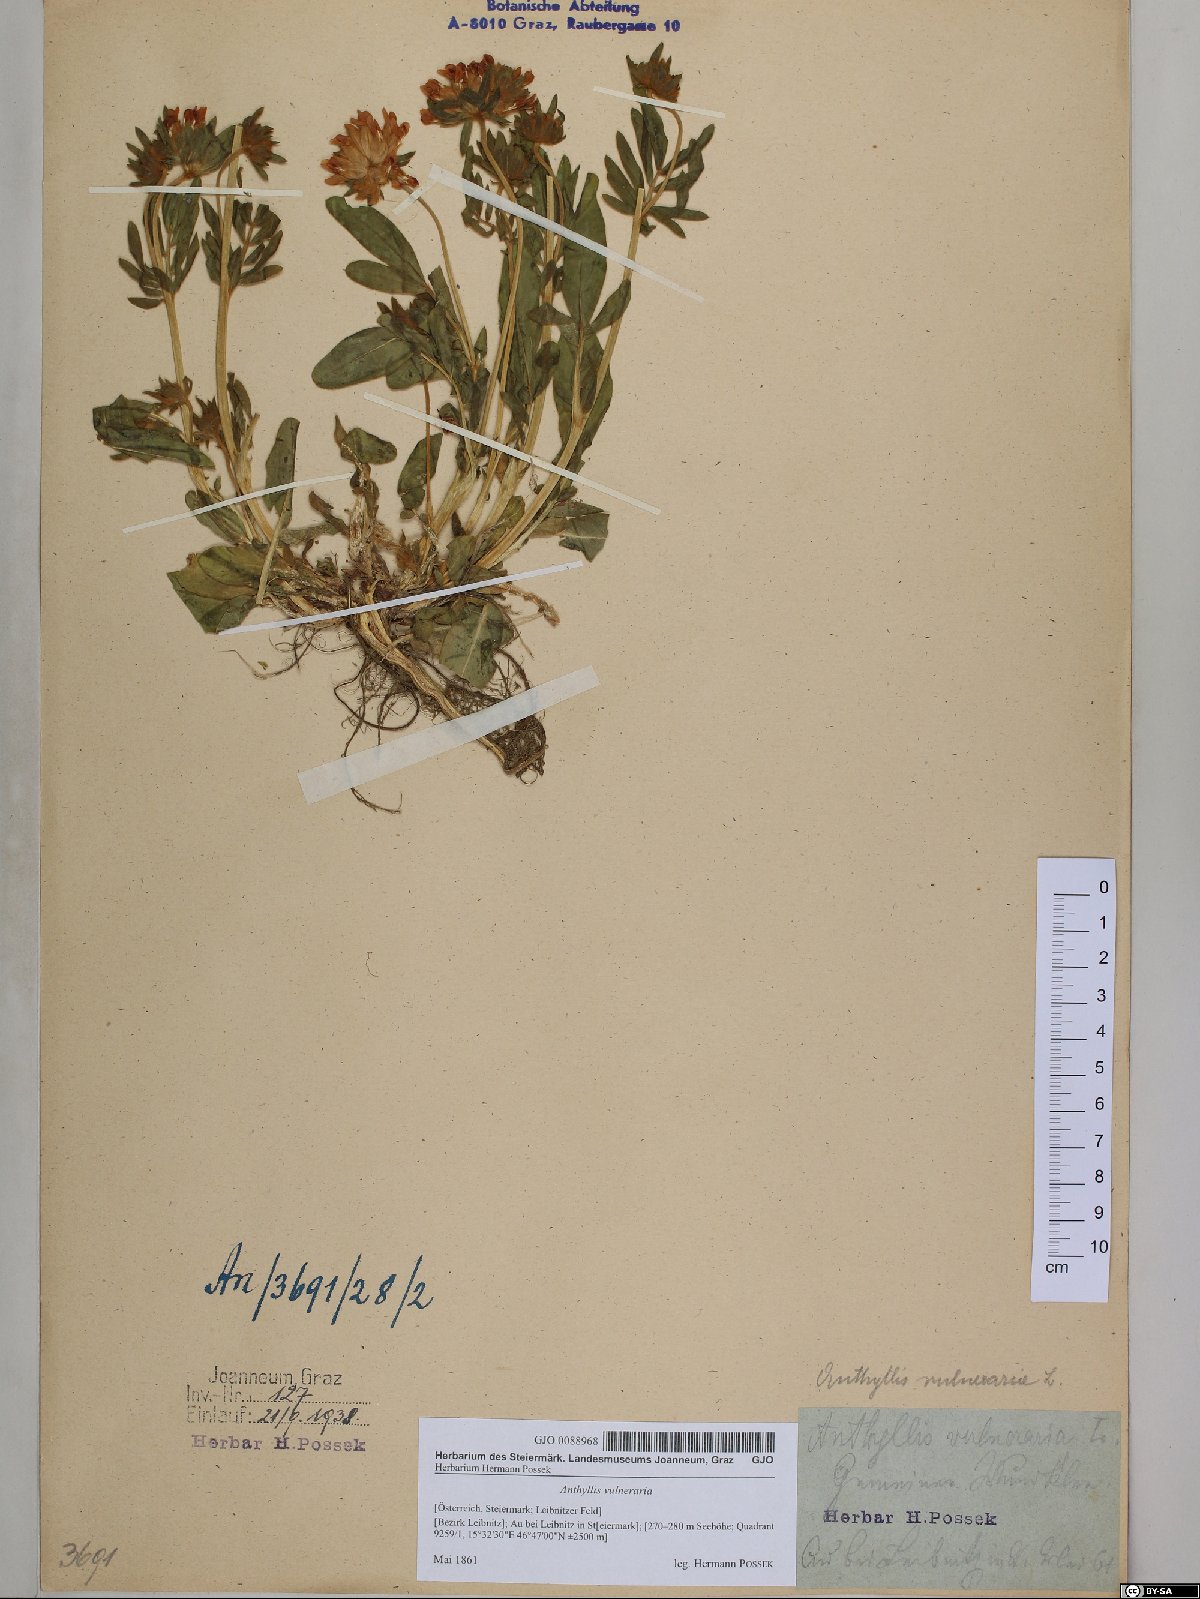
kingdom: Plantae
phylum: Tracheophyta
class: Magnoliopsida
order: Fabales
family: Fabaceae
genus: Anthyllis
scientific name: Anthyllis vulneraria
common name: Kidney vetch
